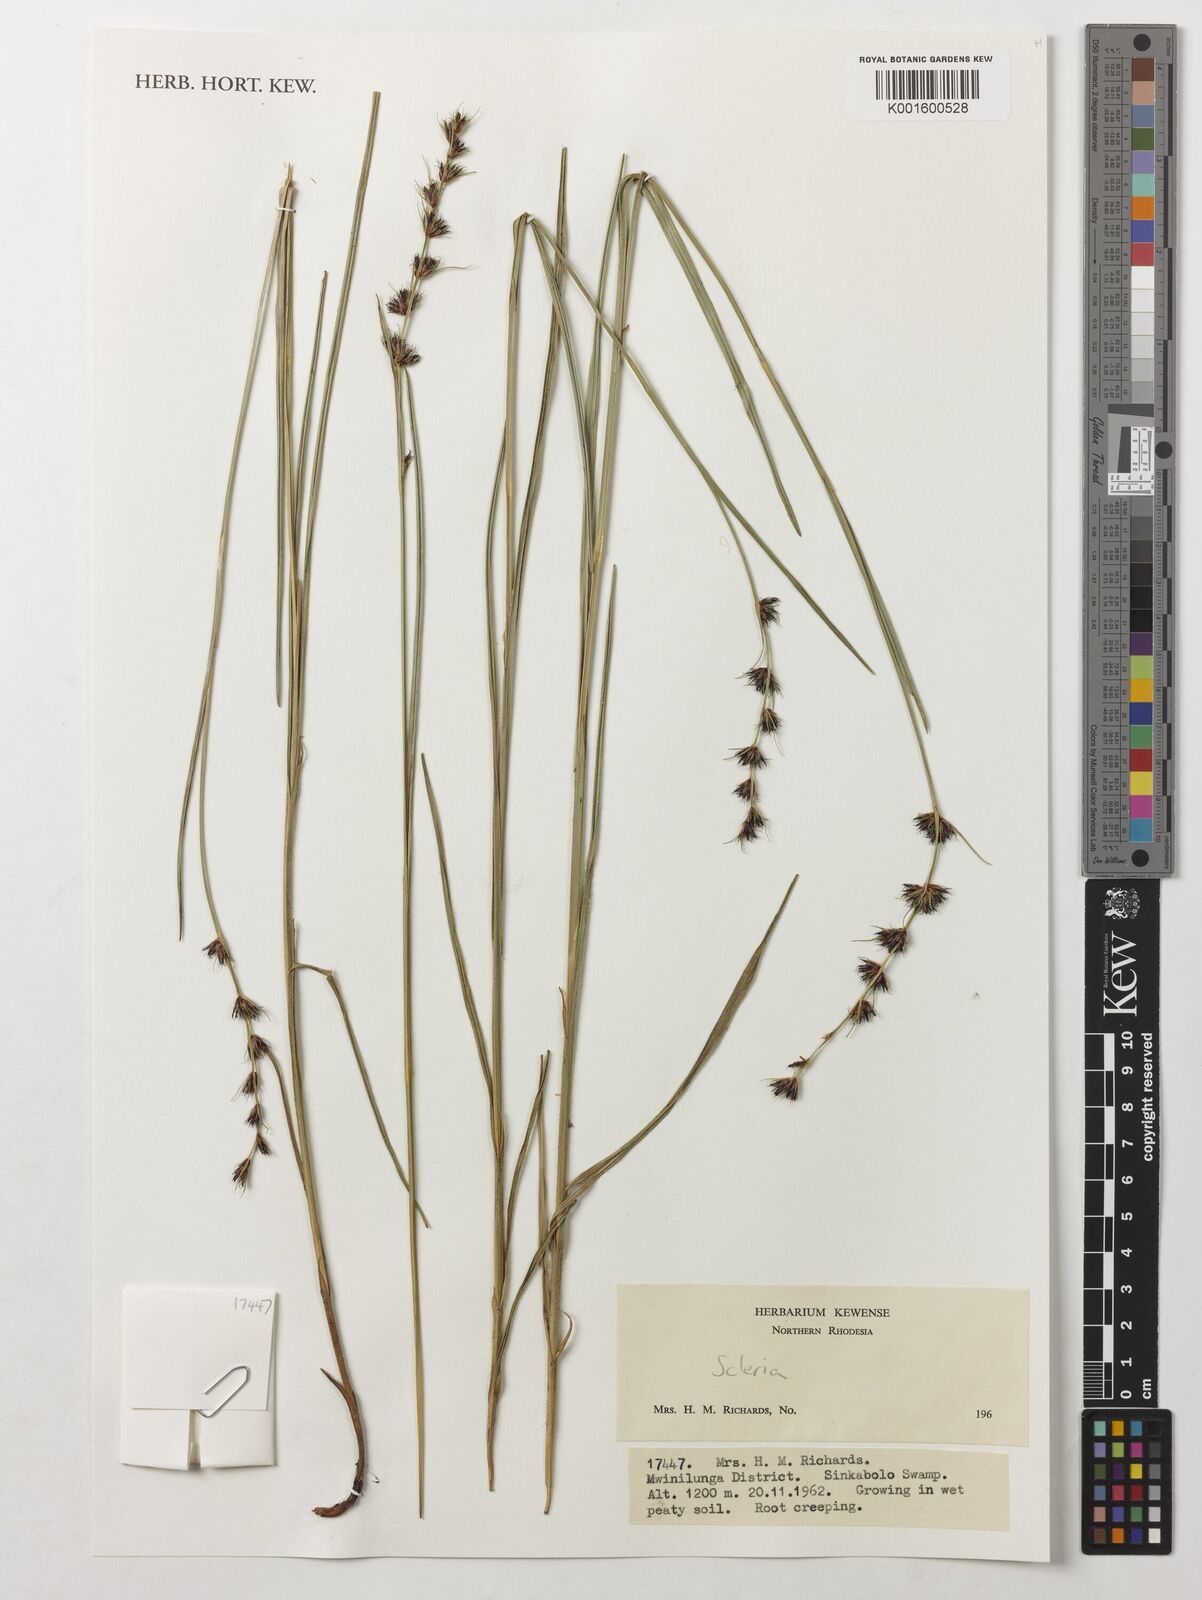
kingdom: Plantae
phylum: Tracheophyta
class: Liliopsida
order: Poales
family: Cyperaceae
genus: Scleria
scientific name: Scleria
